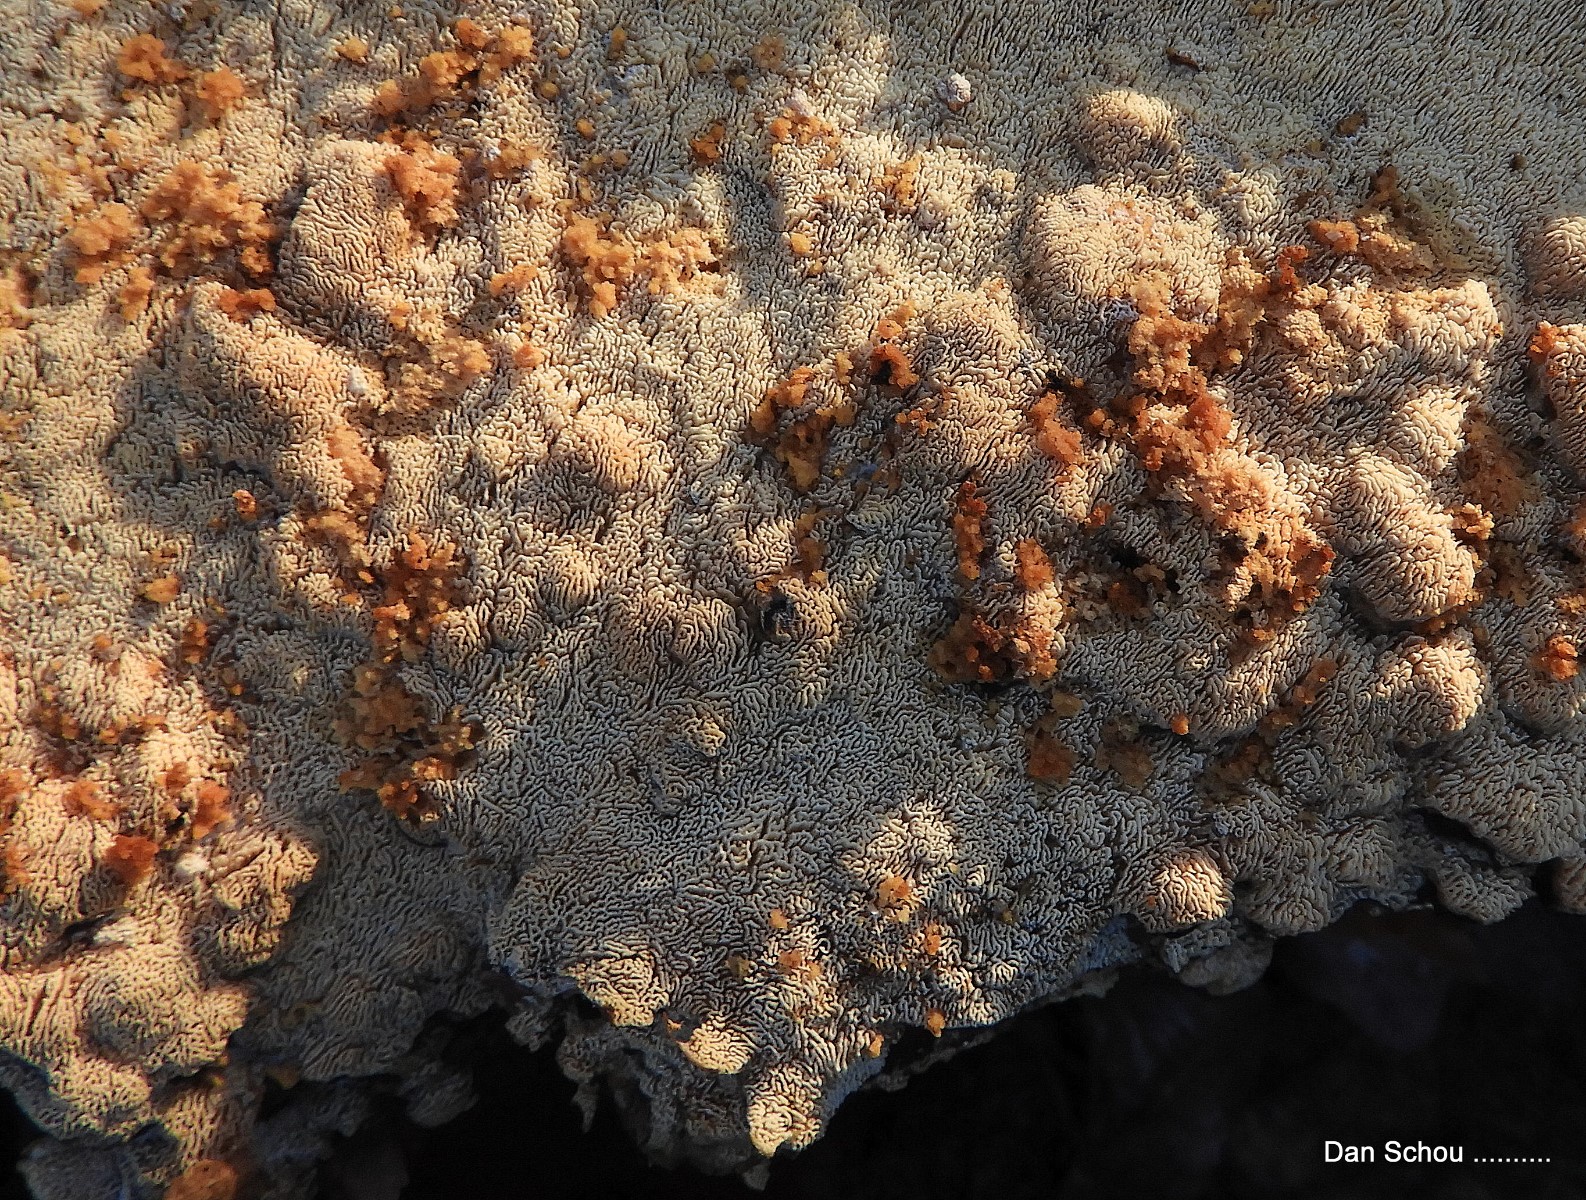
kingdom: Fungi
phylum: Basidiomycota
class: Agaricomycetes
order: Hymenochaetales
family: Schizoporaceae
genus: Xylodon
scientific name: Xylodon subtropicus
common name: labyrint-tandsvamp
